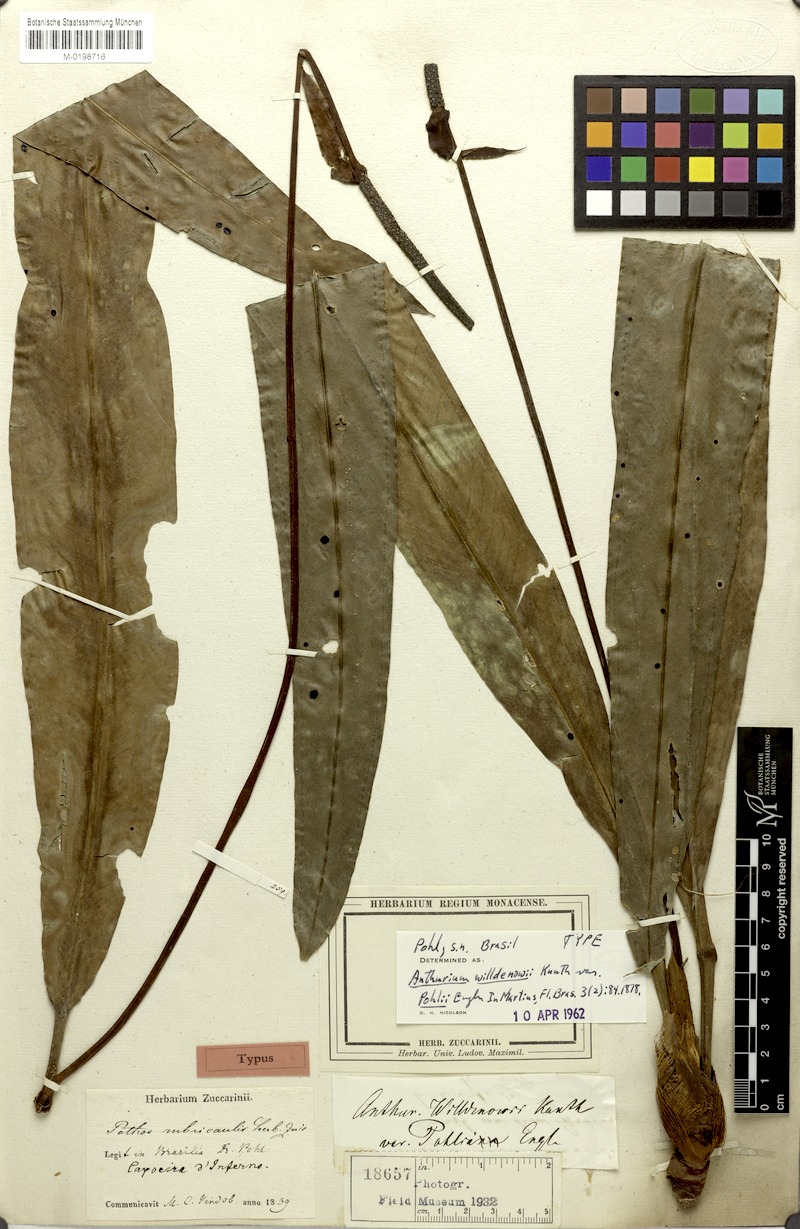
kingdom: Plantae
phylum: Tracheophyta
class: Liliopsida
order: Alismatales
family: Araceae
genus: Anthurium
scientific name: Anthurium willdenowii
